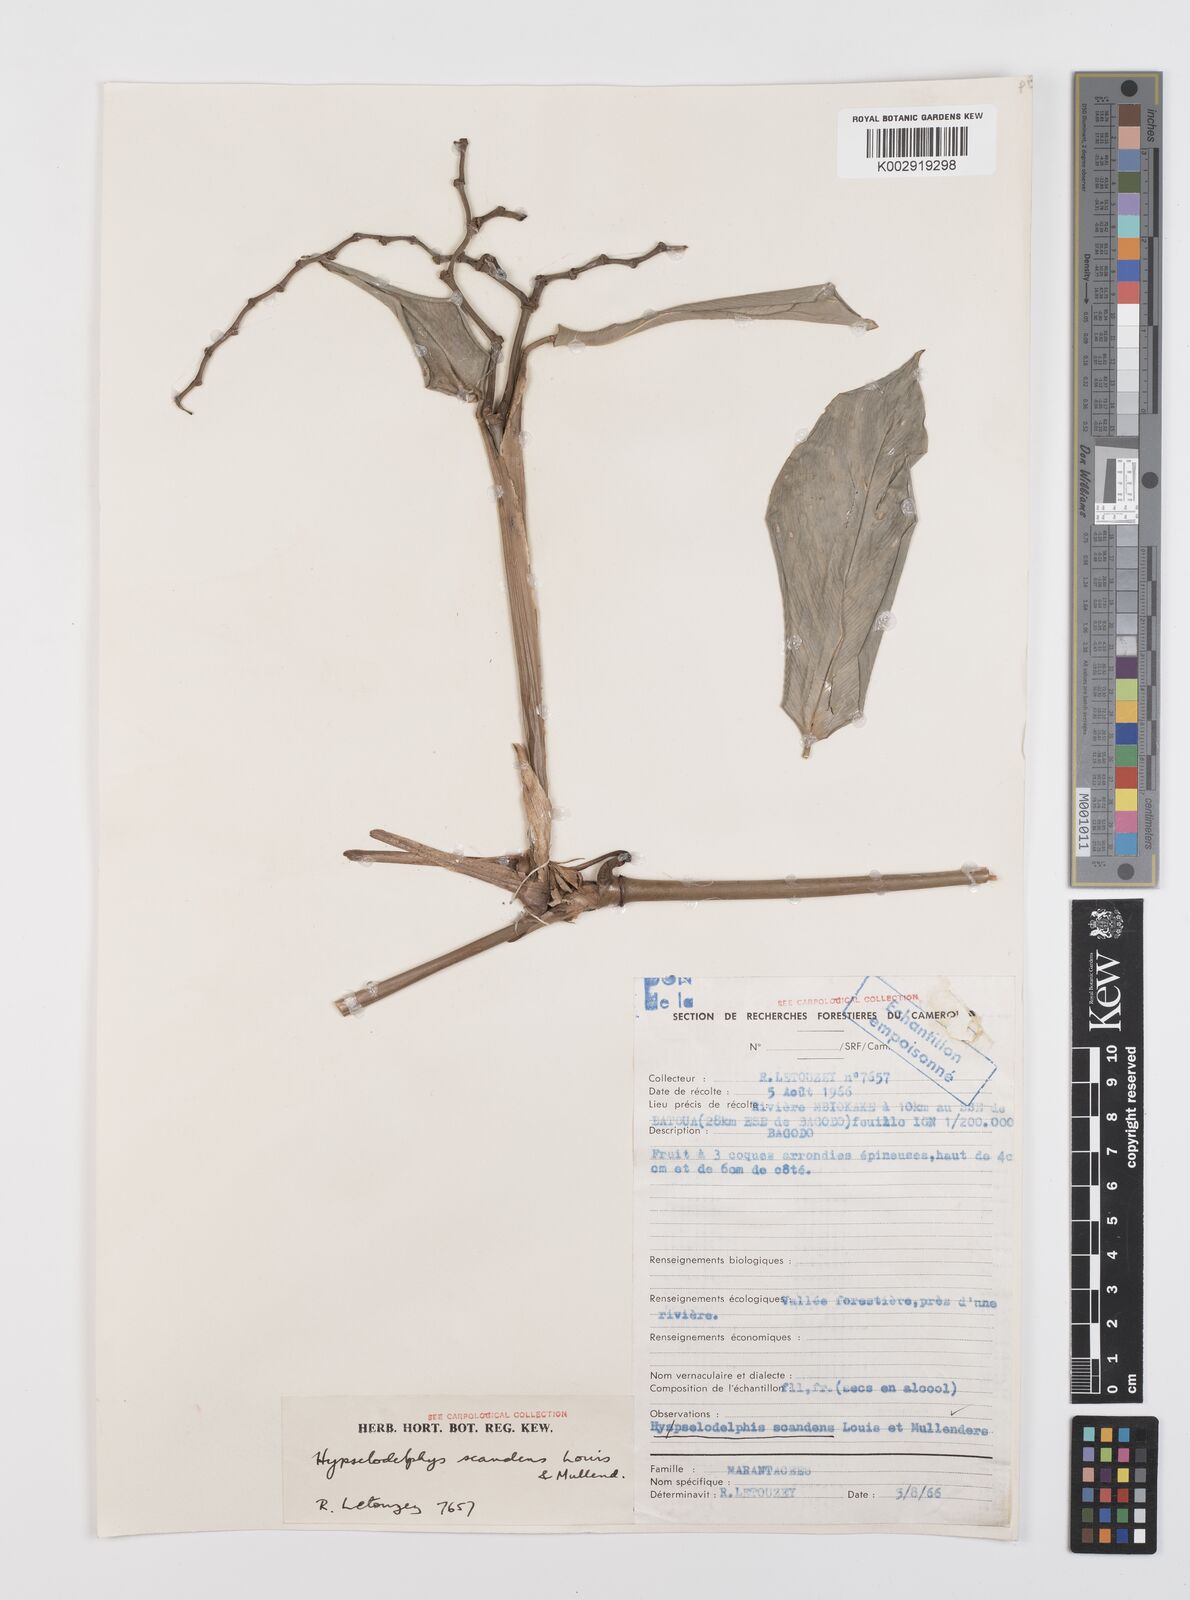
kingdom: Plantae
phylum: Tracheophyta
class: Liliopsida
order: Zingiberales
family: Marantaceae
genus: Hypselodelphys
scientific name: Hypselodelphys scandens
